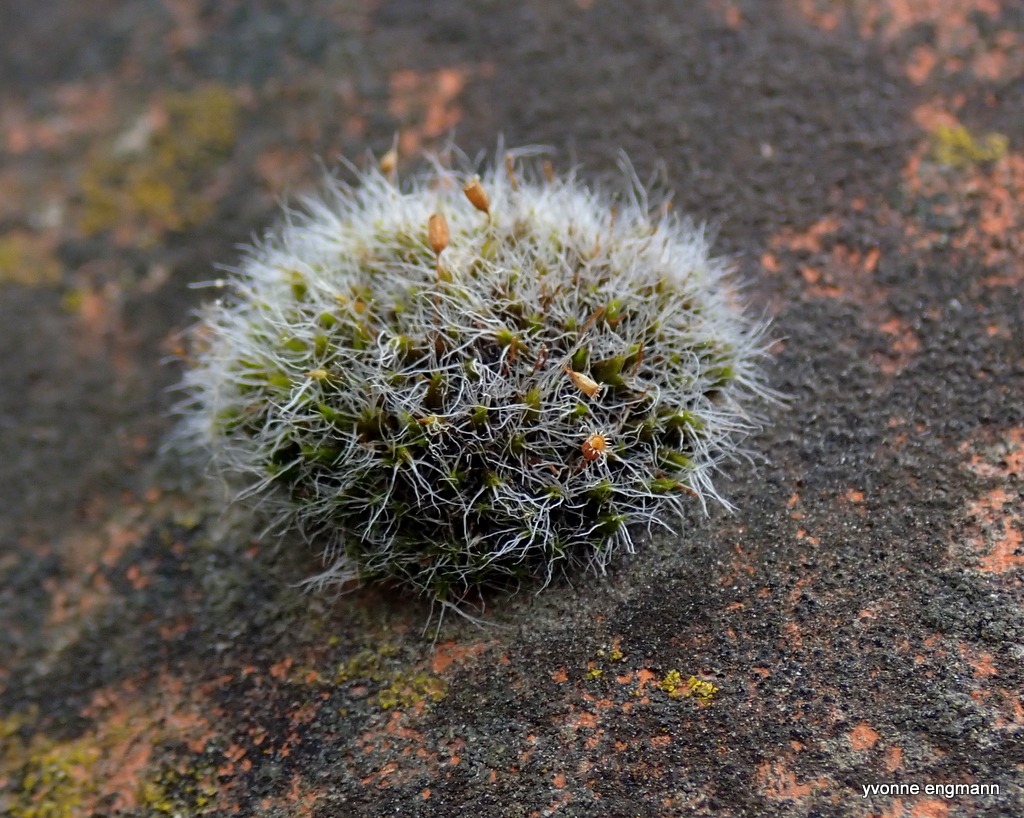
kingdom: Plantae
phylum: Bryophyta
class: Bryopsida
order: Grimmiales
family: Grimmiaceae
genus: Grimmia
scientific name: Grimmia pulvinata
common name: Pude-gråmos
